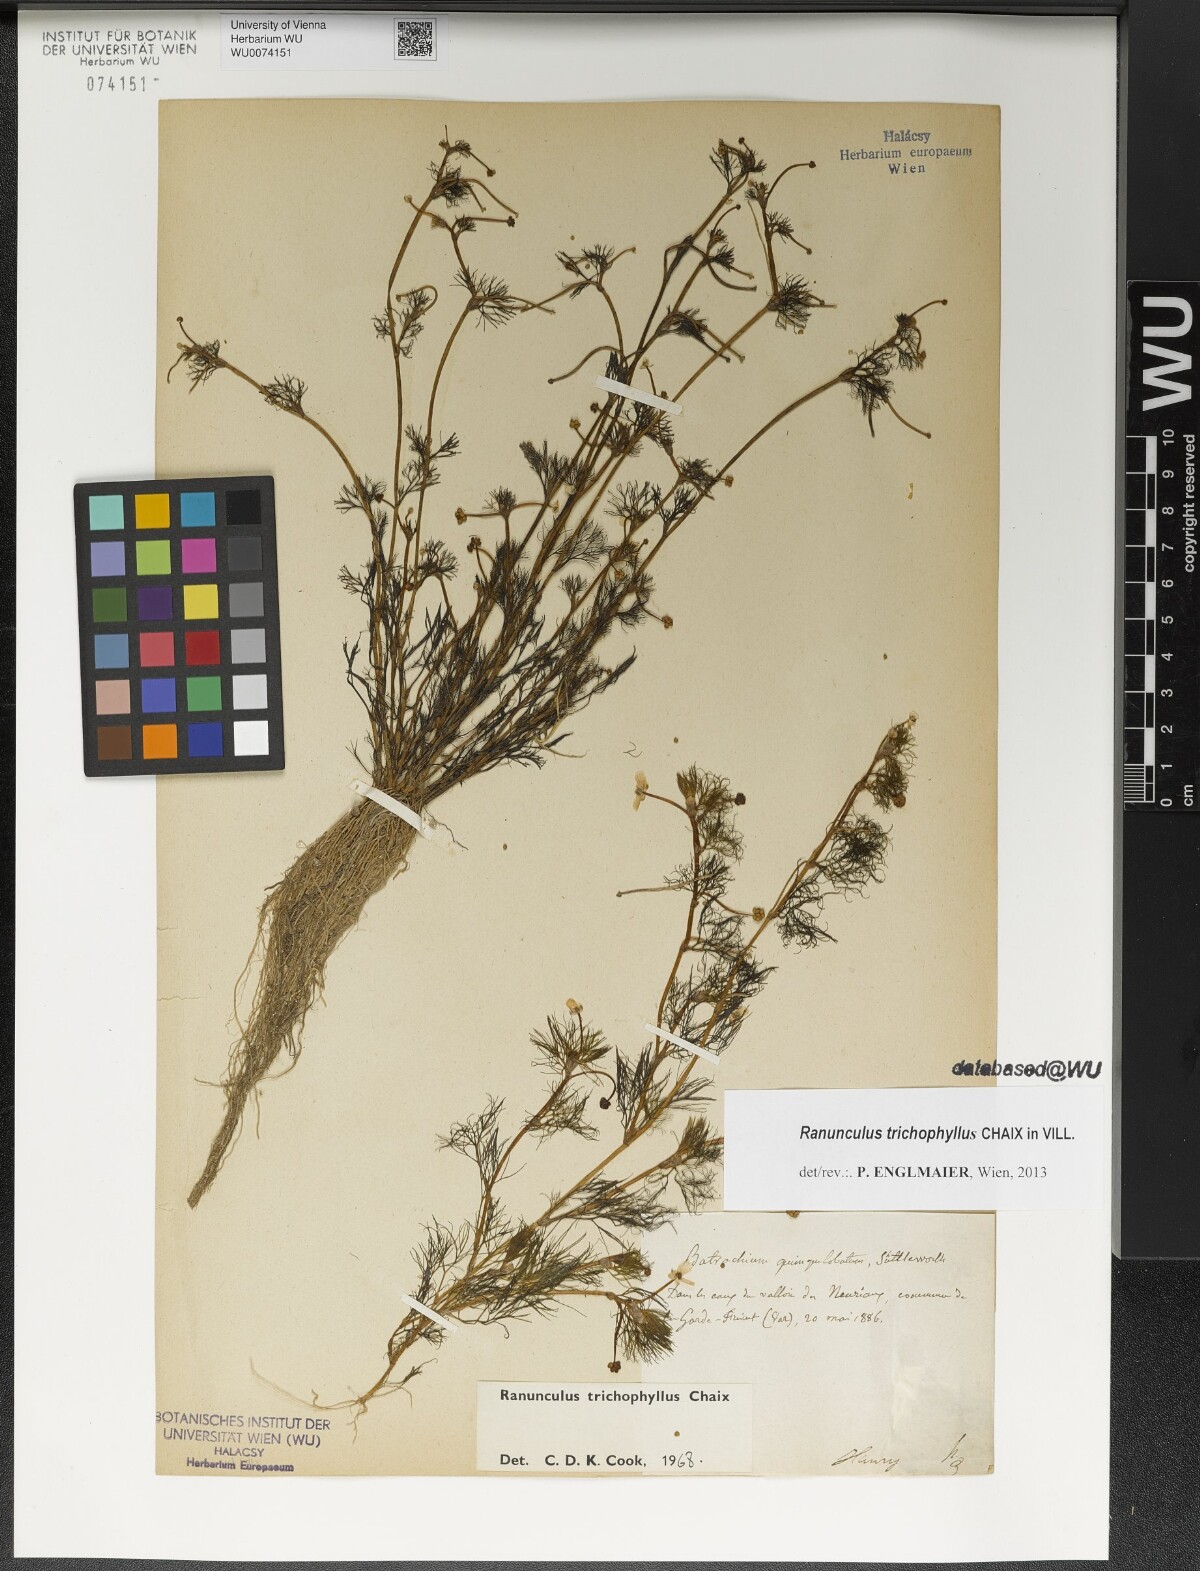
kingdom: Plantae
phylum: Tracheophyta
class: Magnoliopsida
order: Ranunculales
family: Ranunculaceae
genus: Ranunculus
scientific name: Ranunculus trichophyllus
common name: Thread-leaved water-crowfoot
